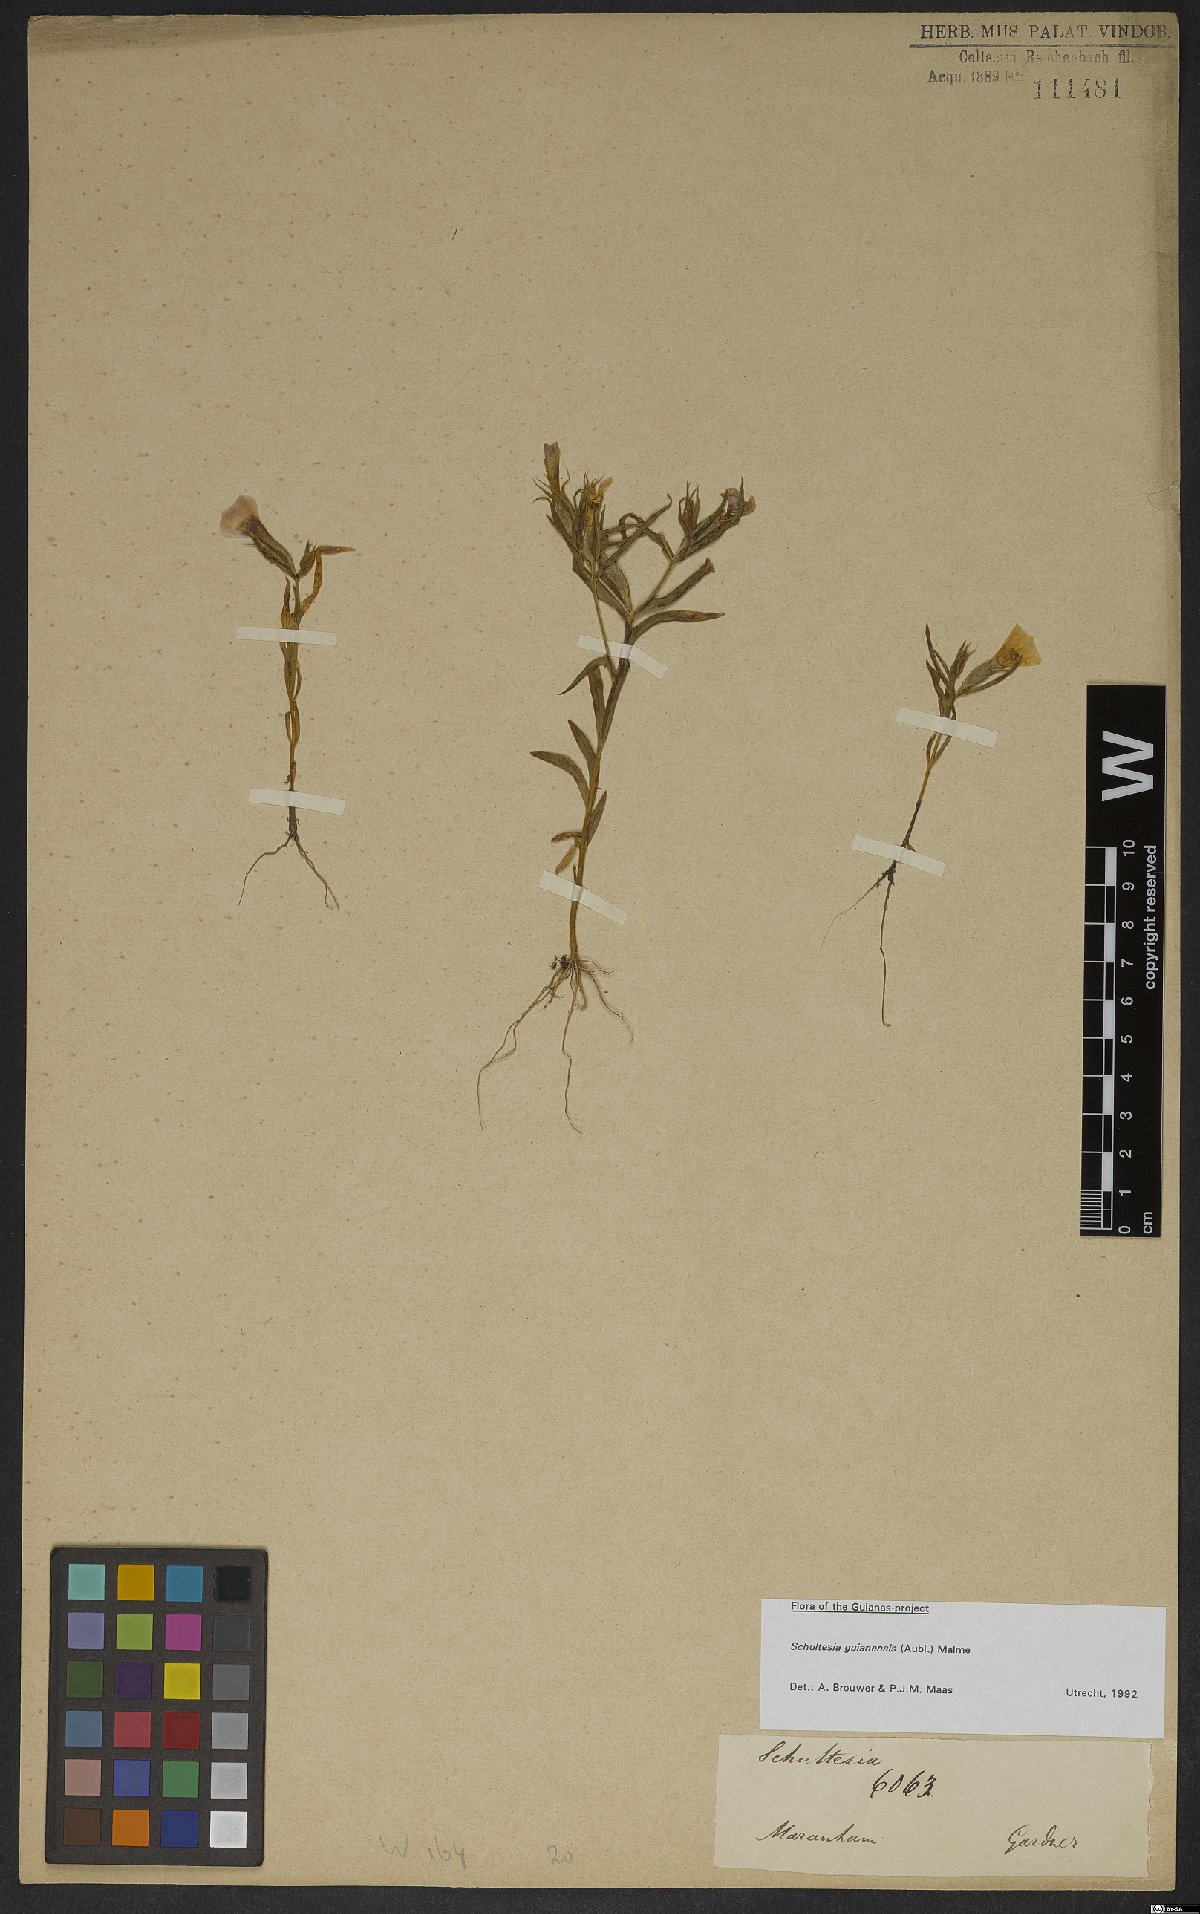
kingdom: Plantae
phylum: Tracheophyta
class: Magnoliopsida
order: Gentianales
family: Gentianaceae
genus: Schultesia
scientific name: Schultesia guianensis
